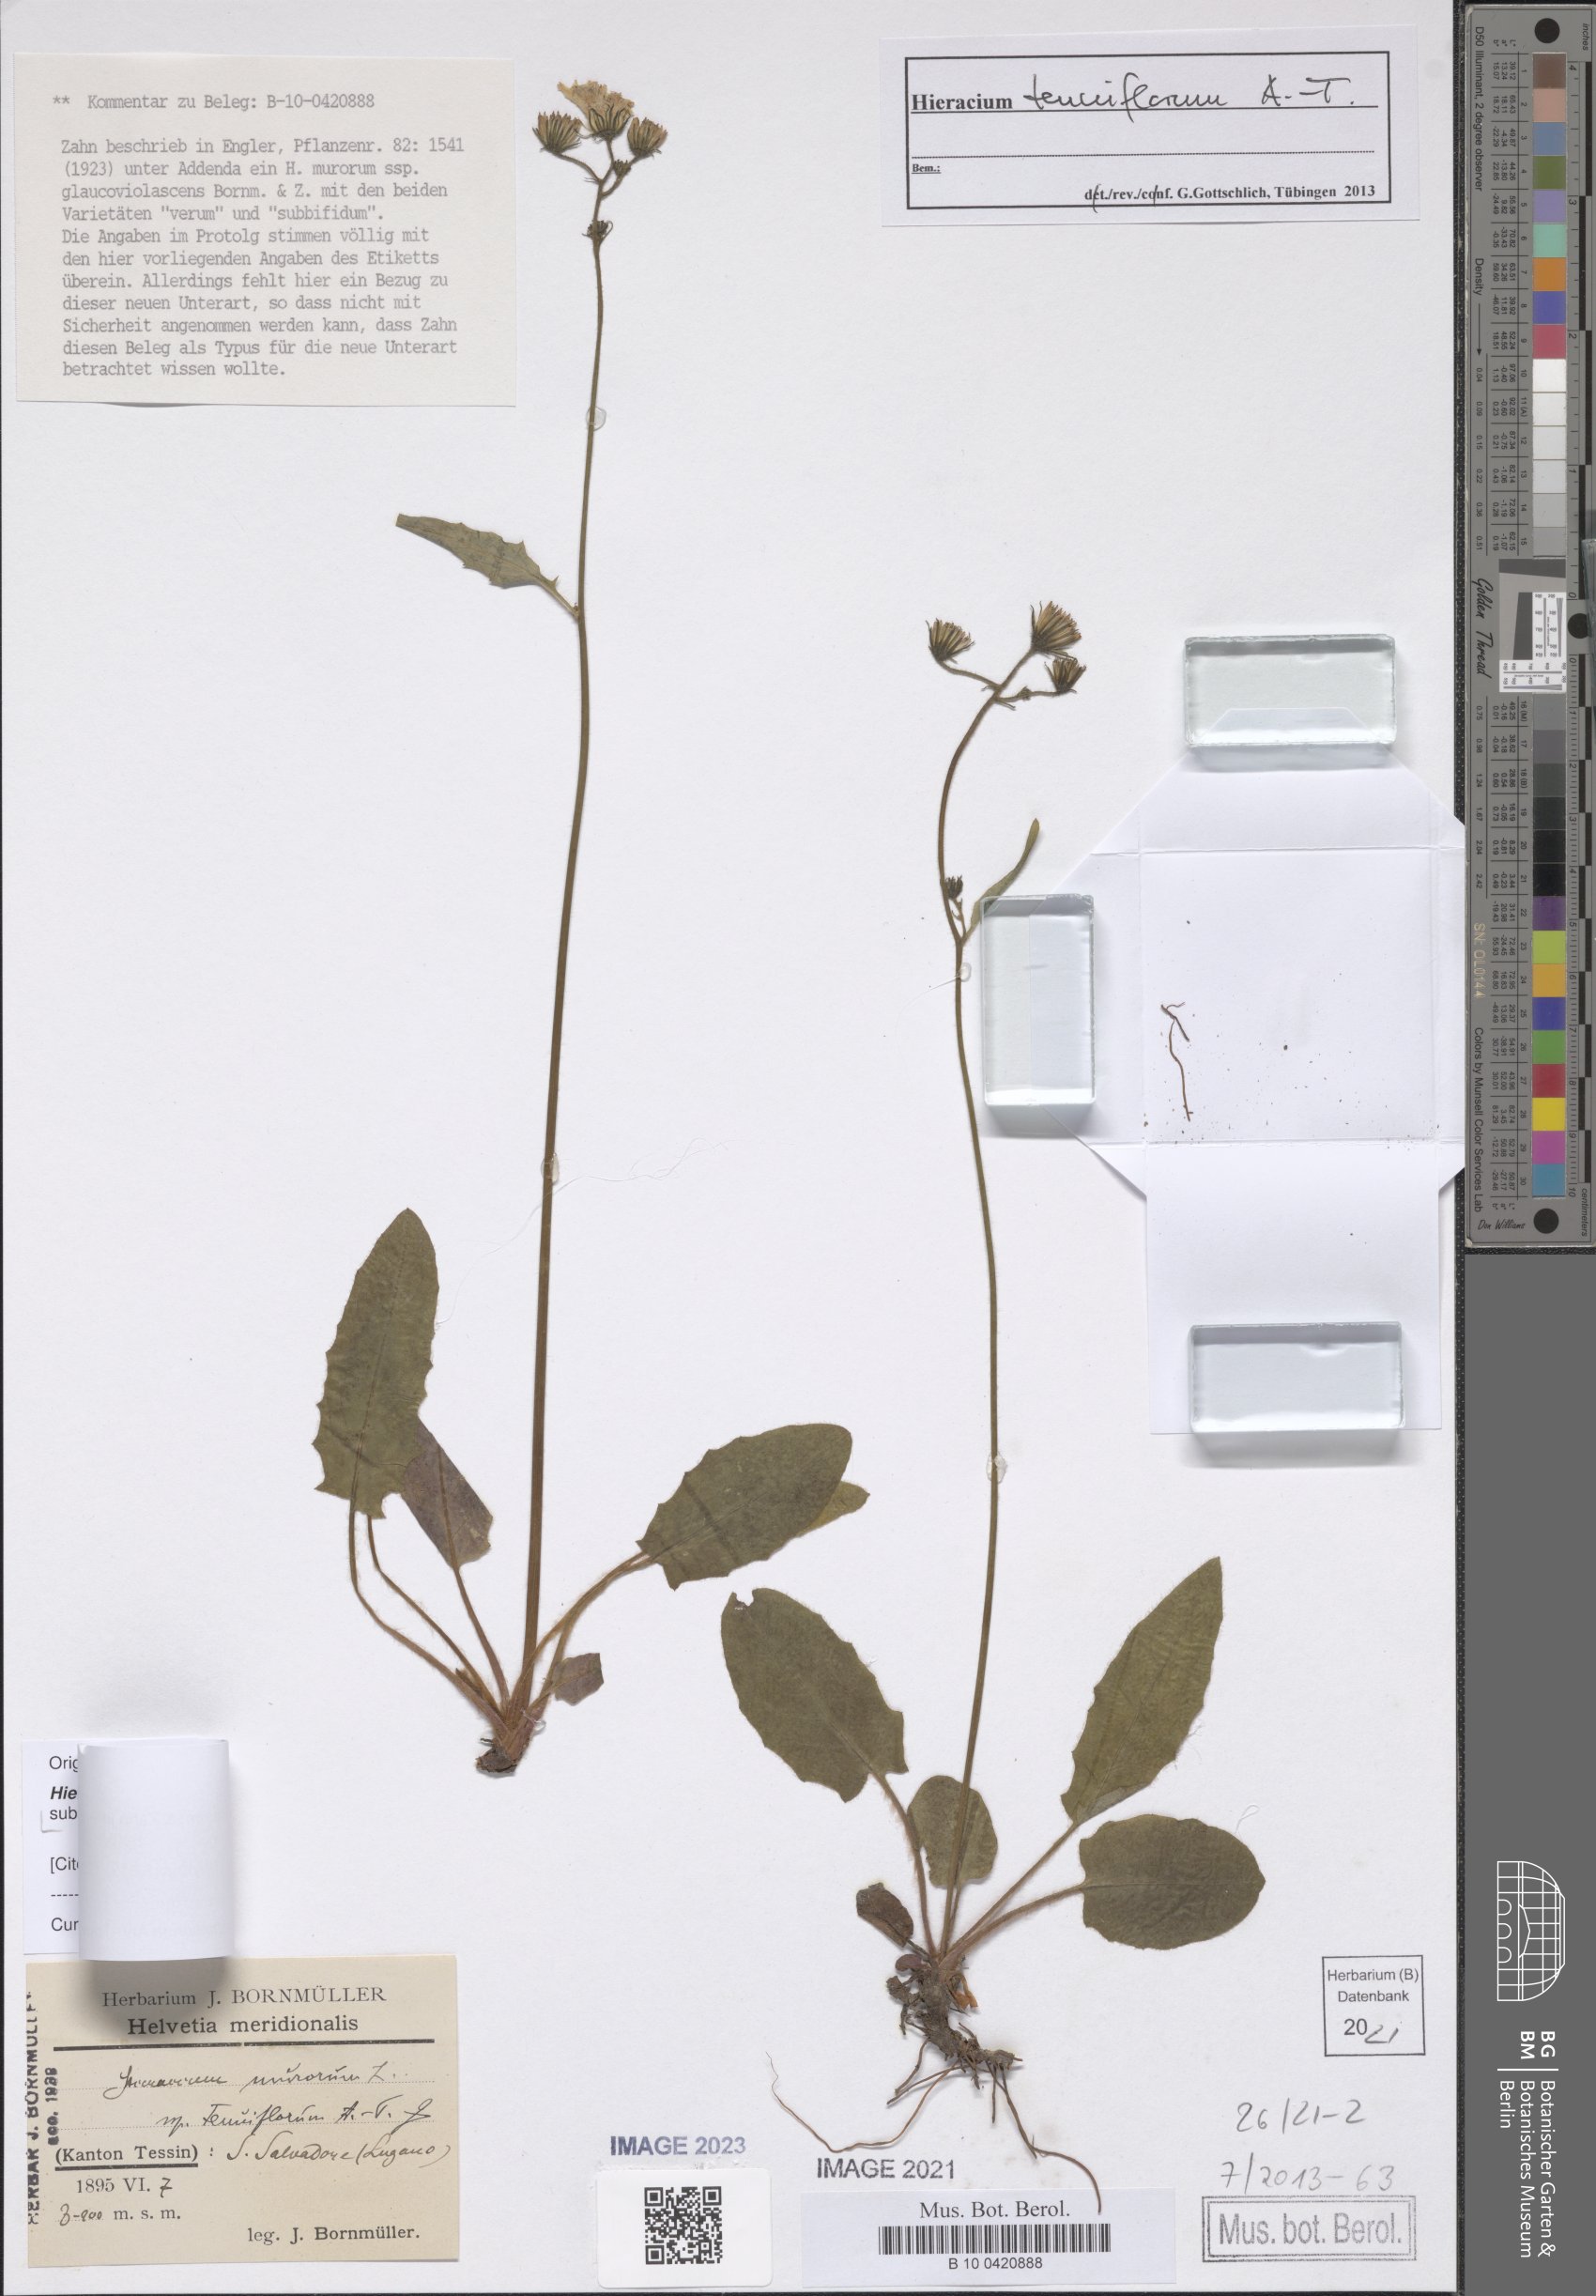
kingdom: Plantae
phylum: Tracheophyta
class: Magnoliopsida
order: Asterales
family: Asteraceae
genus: Hieracium
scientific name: Hieracium tenuiflorum
